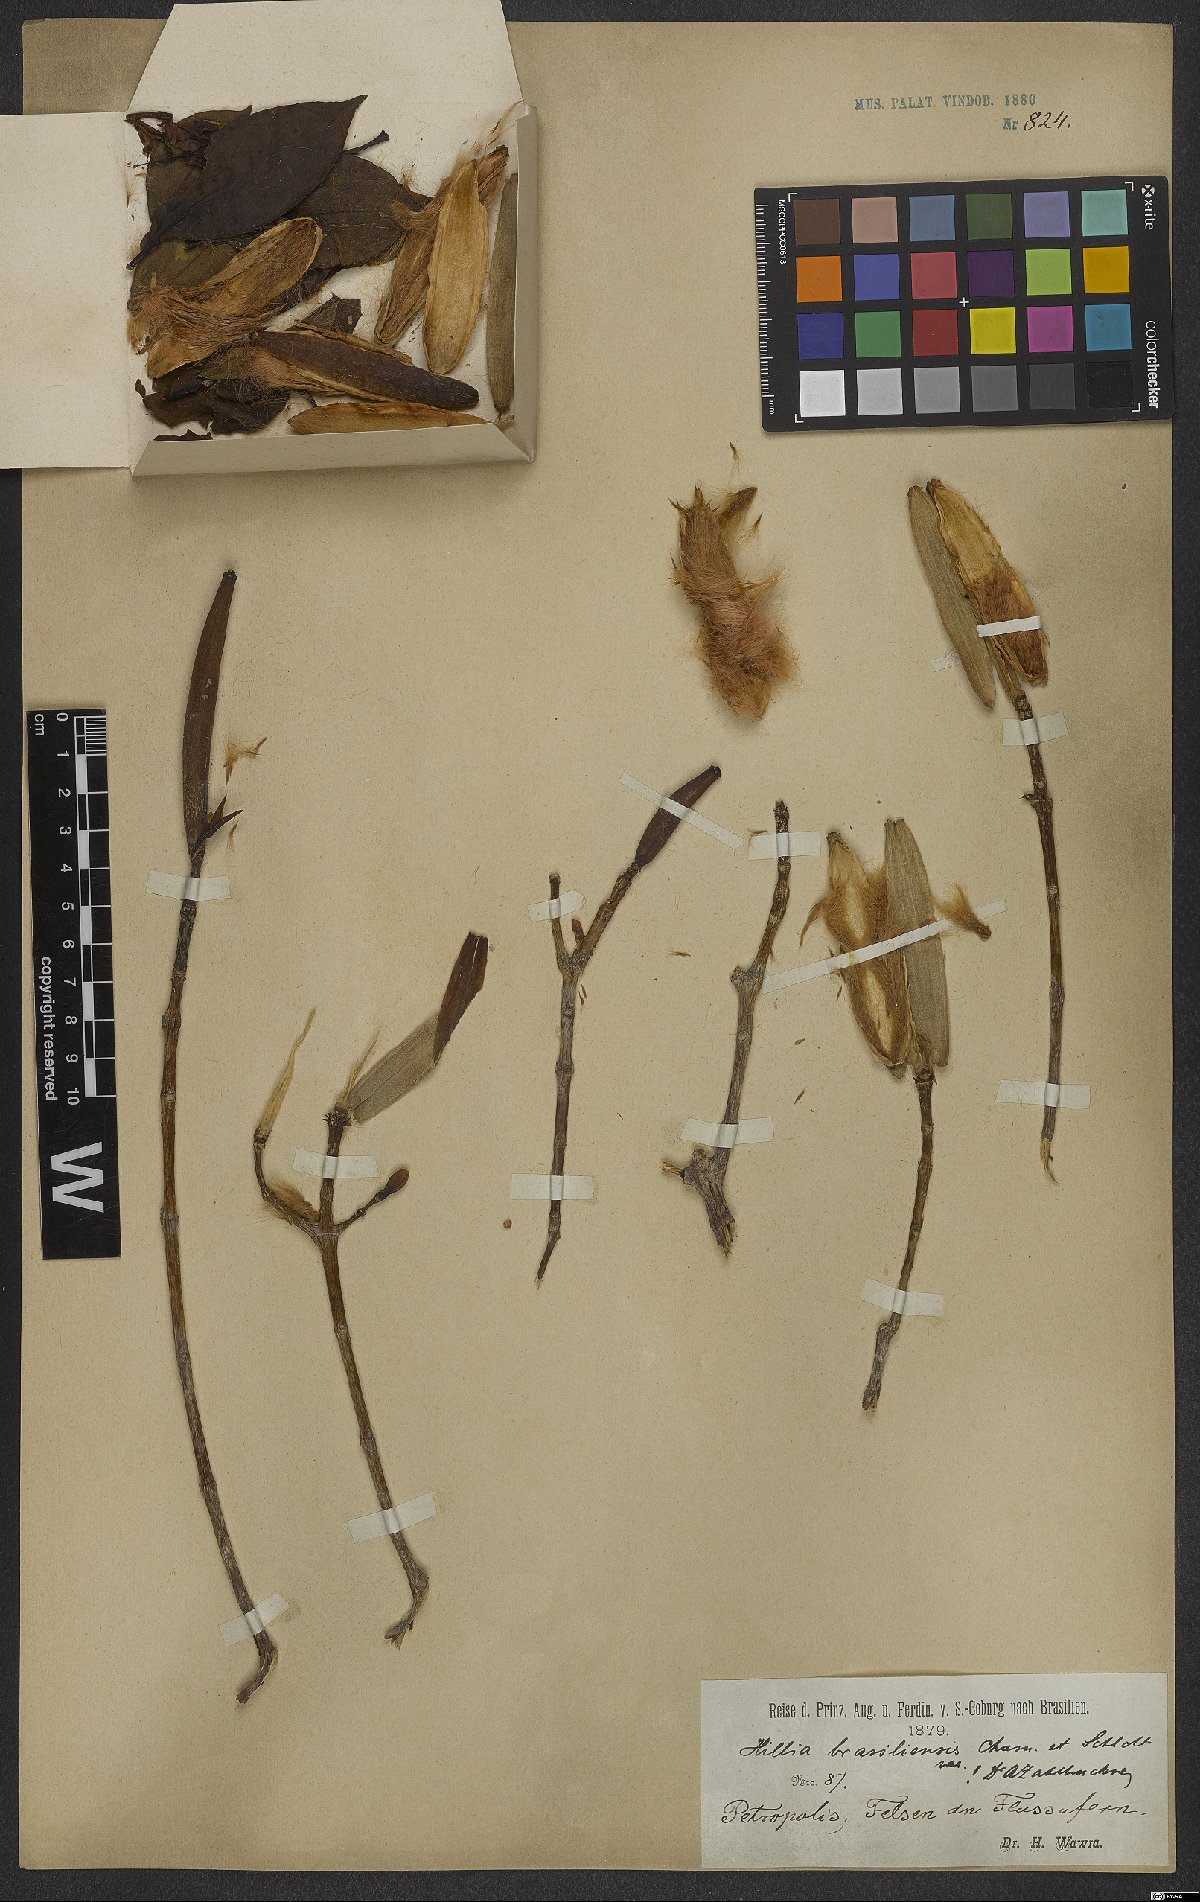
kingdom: Plantae
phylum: Tracheophyta
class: Magnoliopsida
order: Gentianales
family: Rubiaceae
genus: Hillia
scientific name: Hillia parasitica
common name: Morning star
